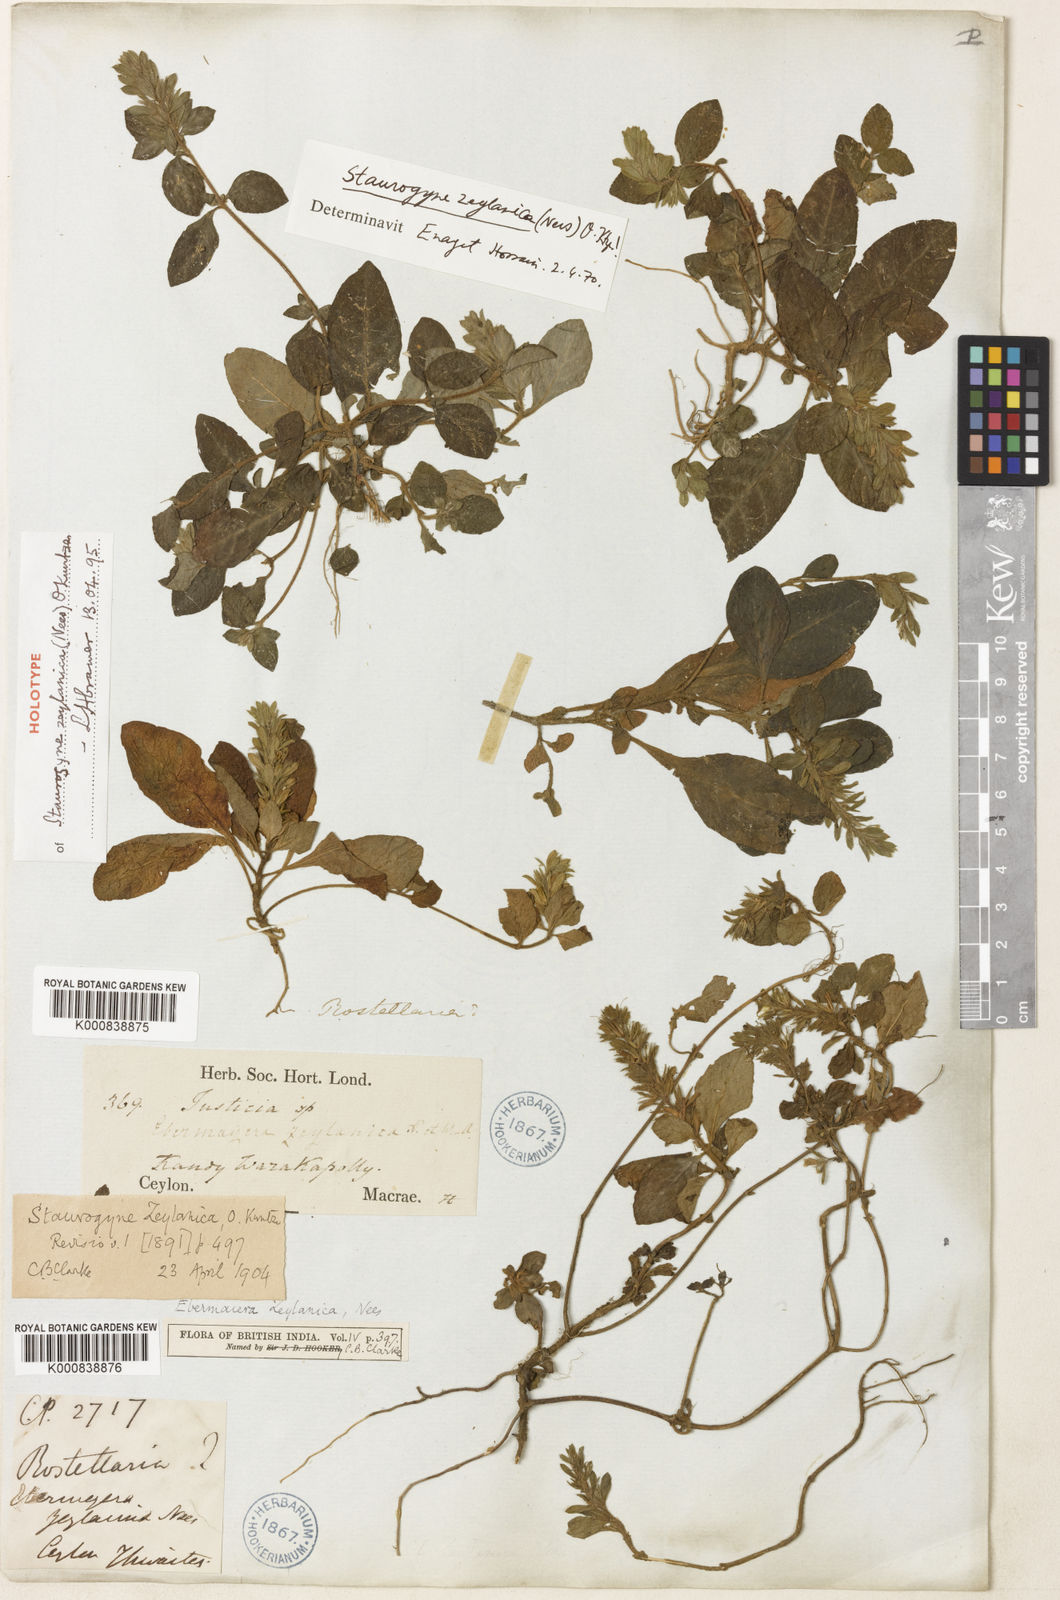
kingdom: Plantae
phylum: Tracheophyta
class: Magnoliopsida
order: Lamiales
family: Acanthaceae
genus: Staurogyne
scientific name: Staurogyne zeylanica
